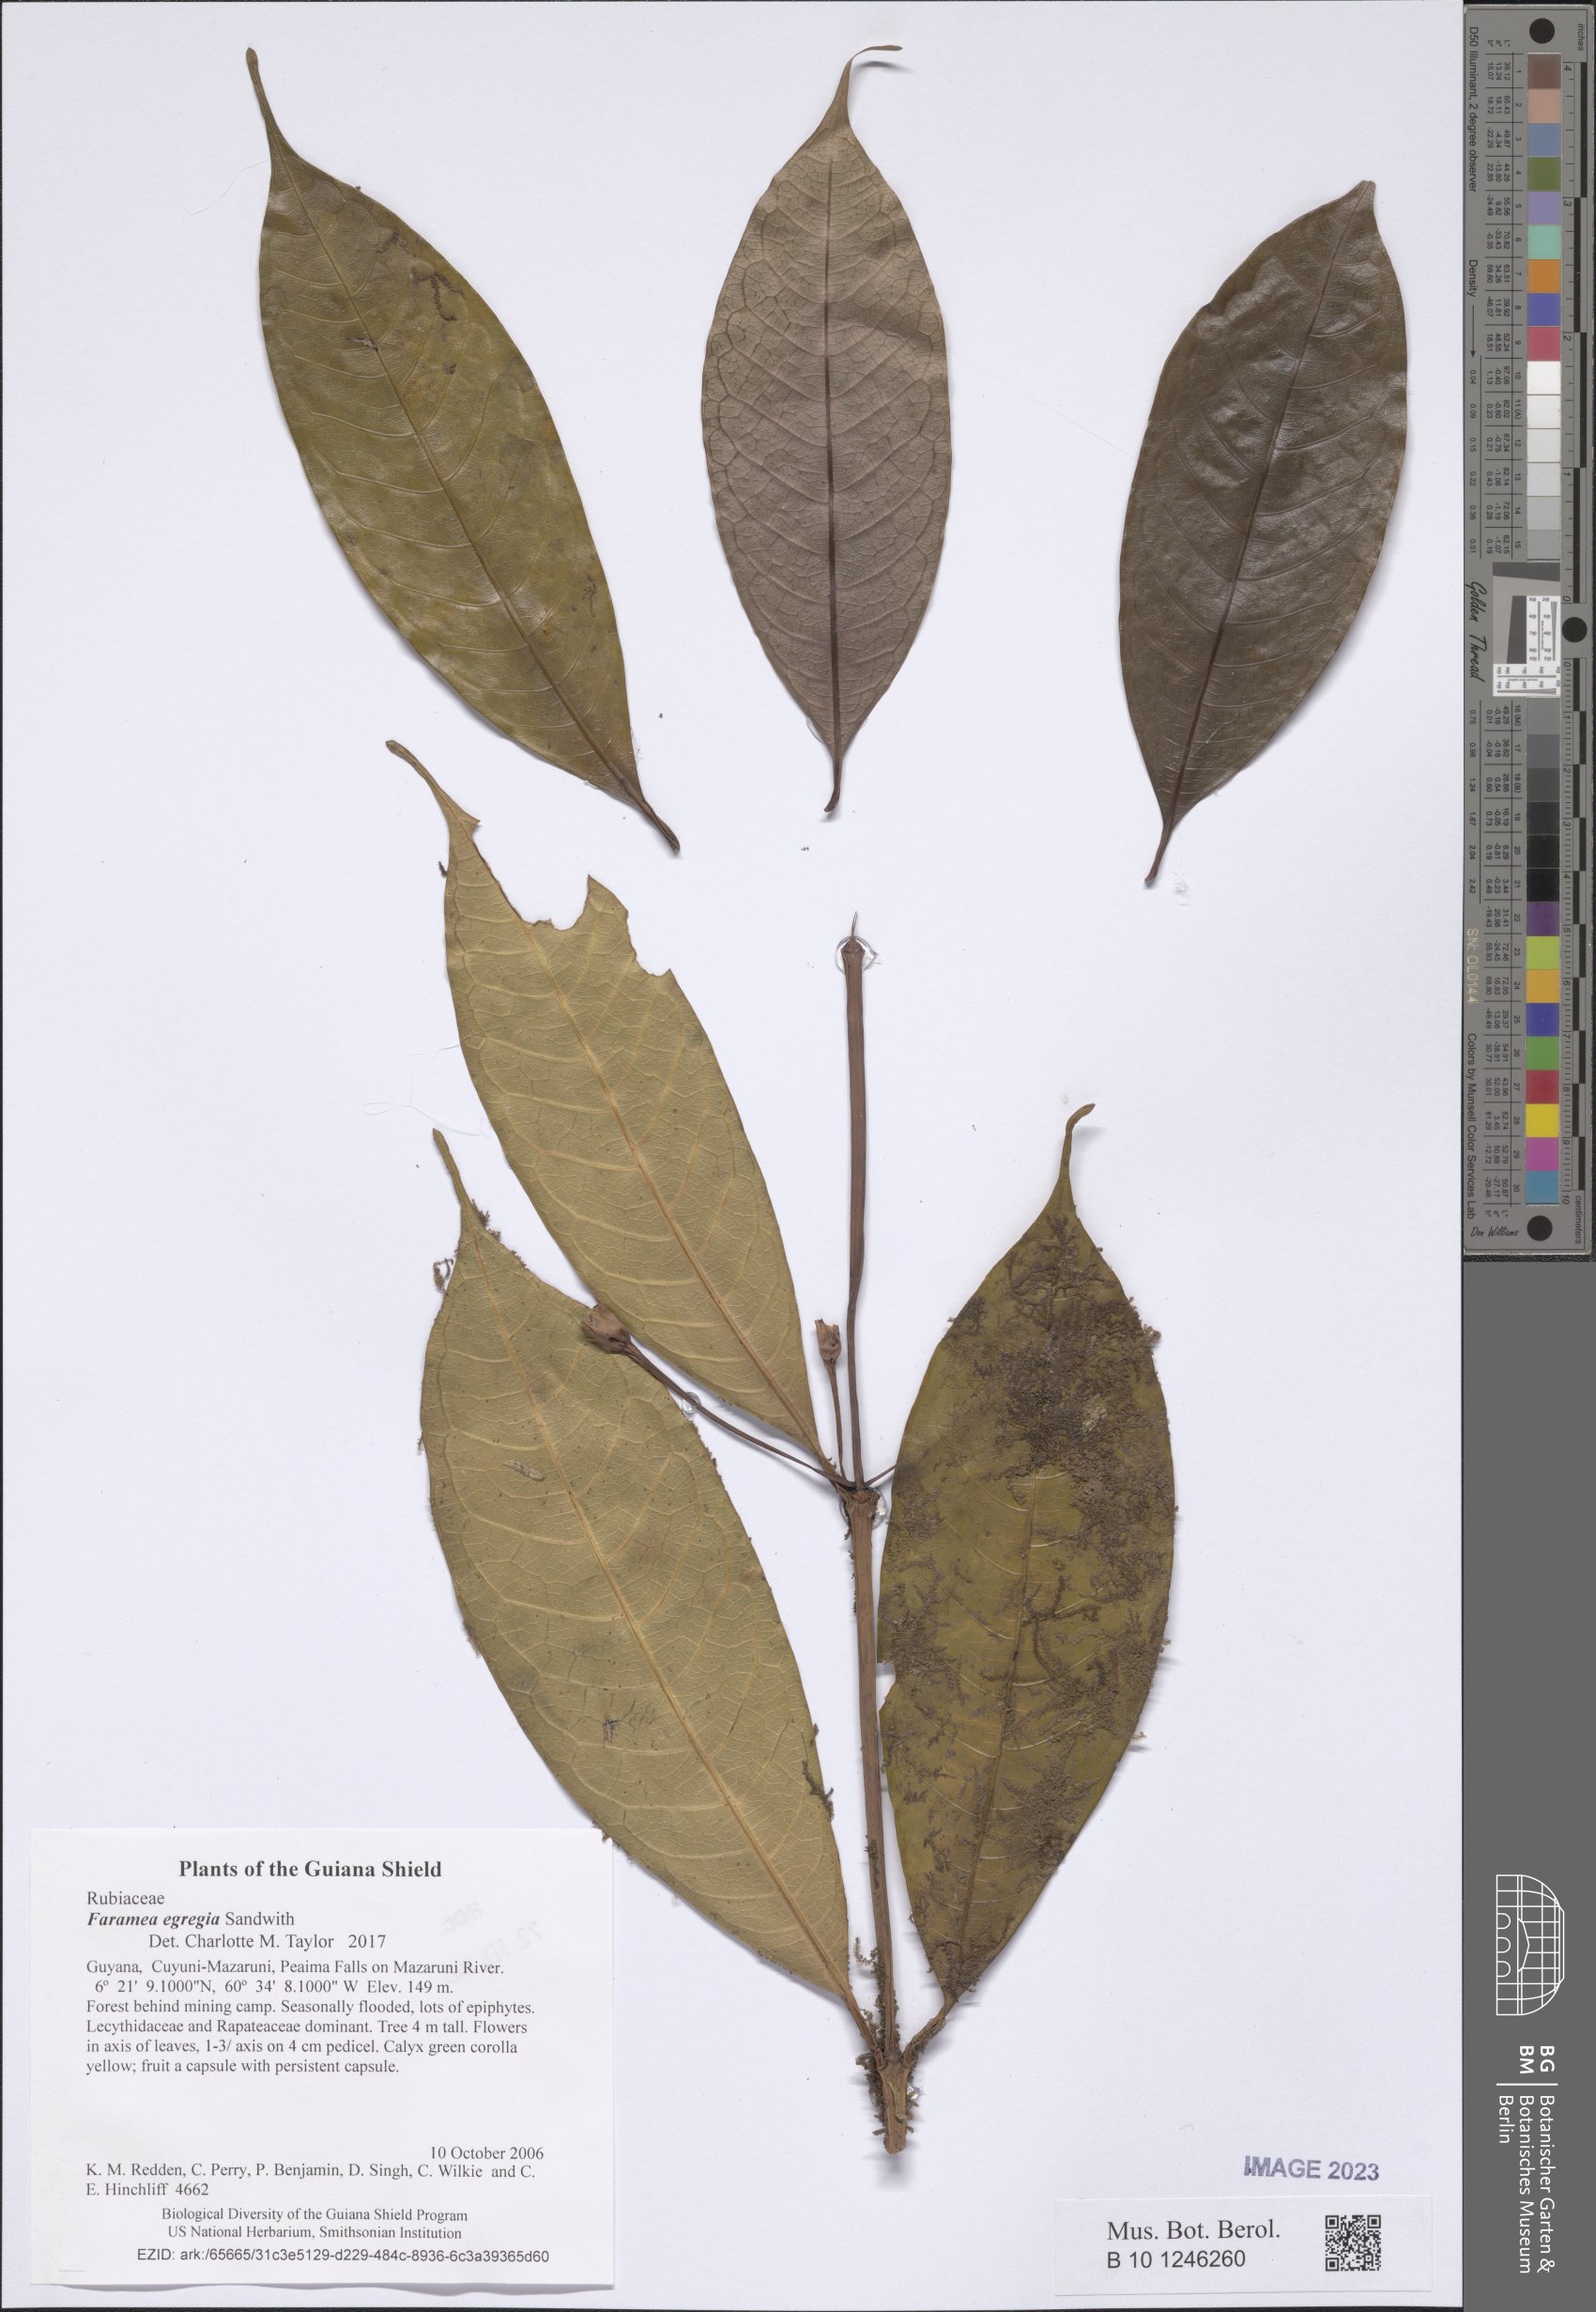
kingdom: Plantae
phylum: Tracheophyta
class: Magnoliopsida
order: Gentianales
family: Rubiaceae
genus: Faramea
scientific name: Faramea egregia
